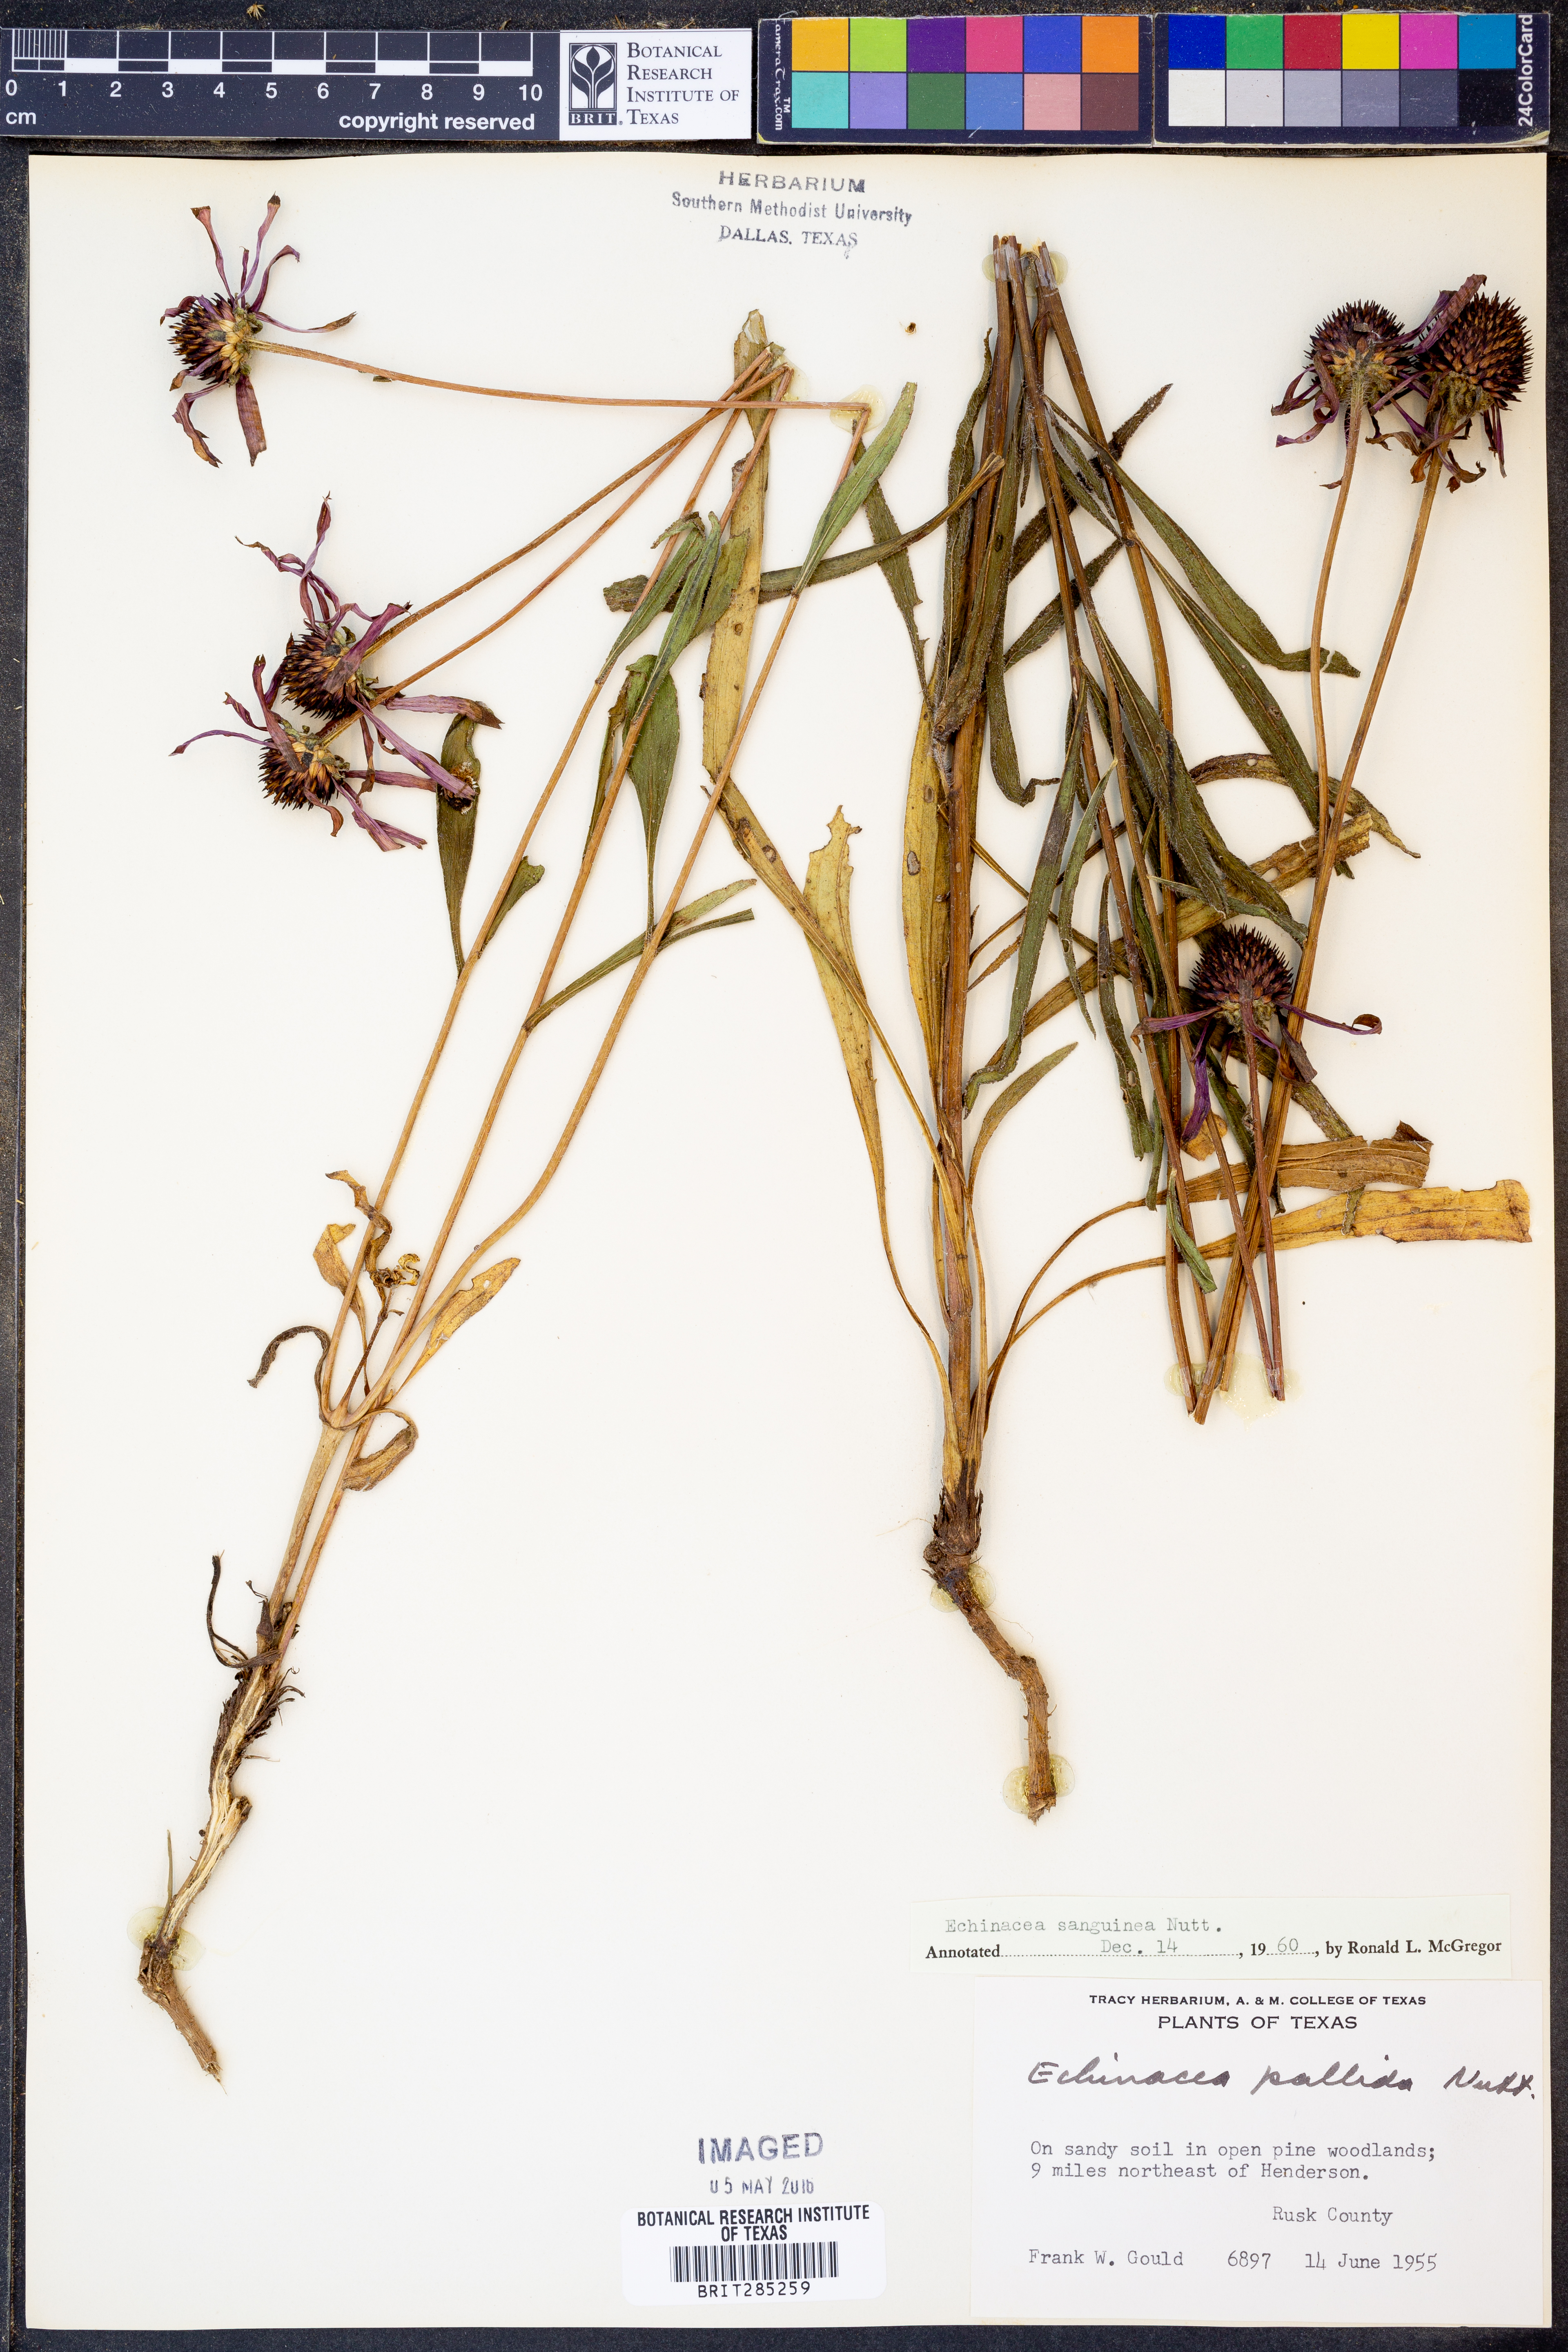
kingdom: Plantae
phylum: Tracheophyta
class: Magnoliopsida
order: Asterales
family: Asteraceae
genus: Echinacea
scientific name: Echinacea sanguinea
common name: Sanguine purple-coneflower
